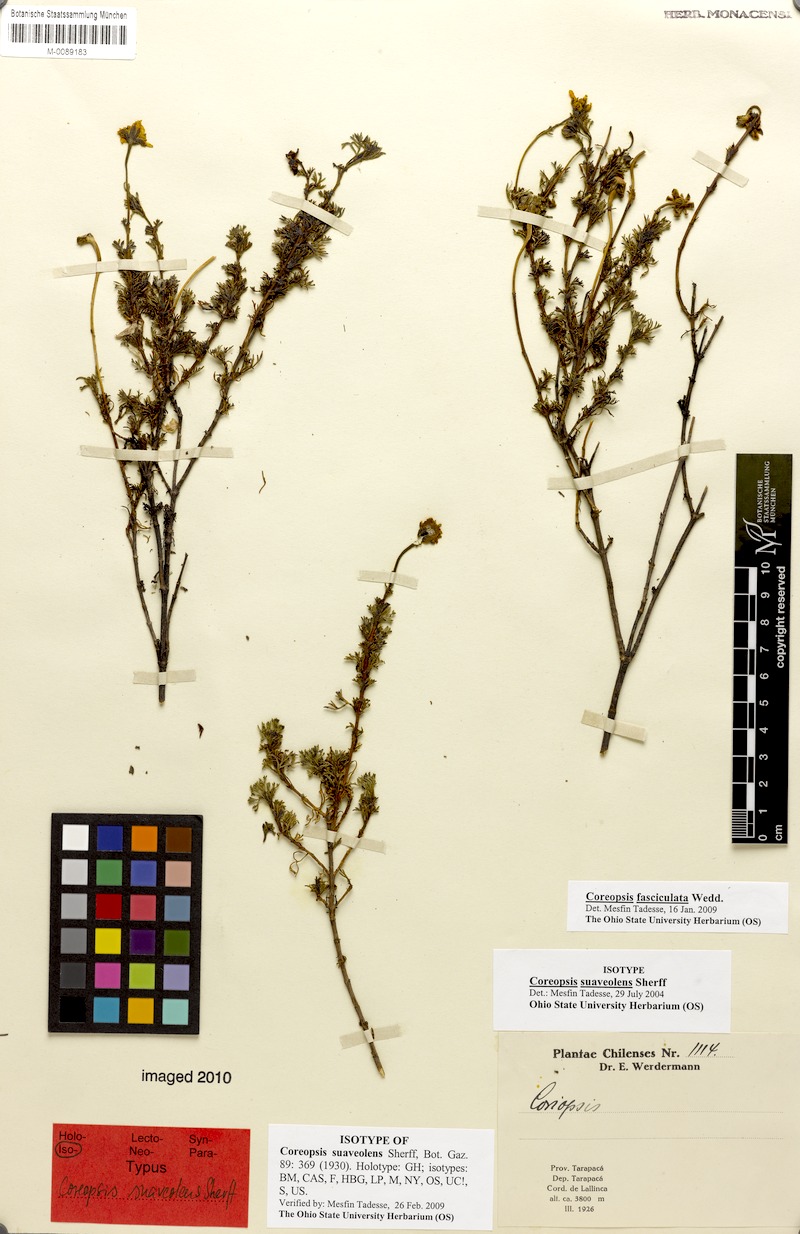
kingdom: Plantae
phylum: Tracheophyta
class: Magnoliopsida
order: Asterales
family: Asteraceae
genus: Coreopsis
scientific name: Coreopsis fasciculata
